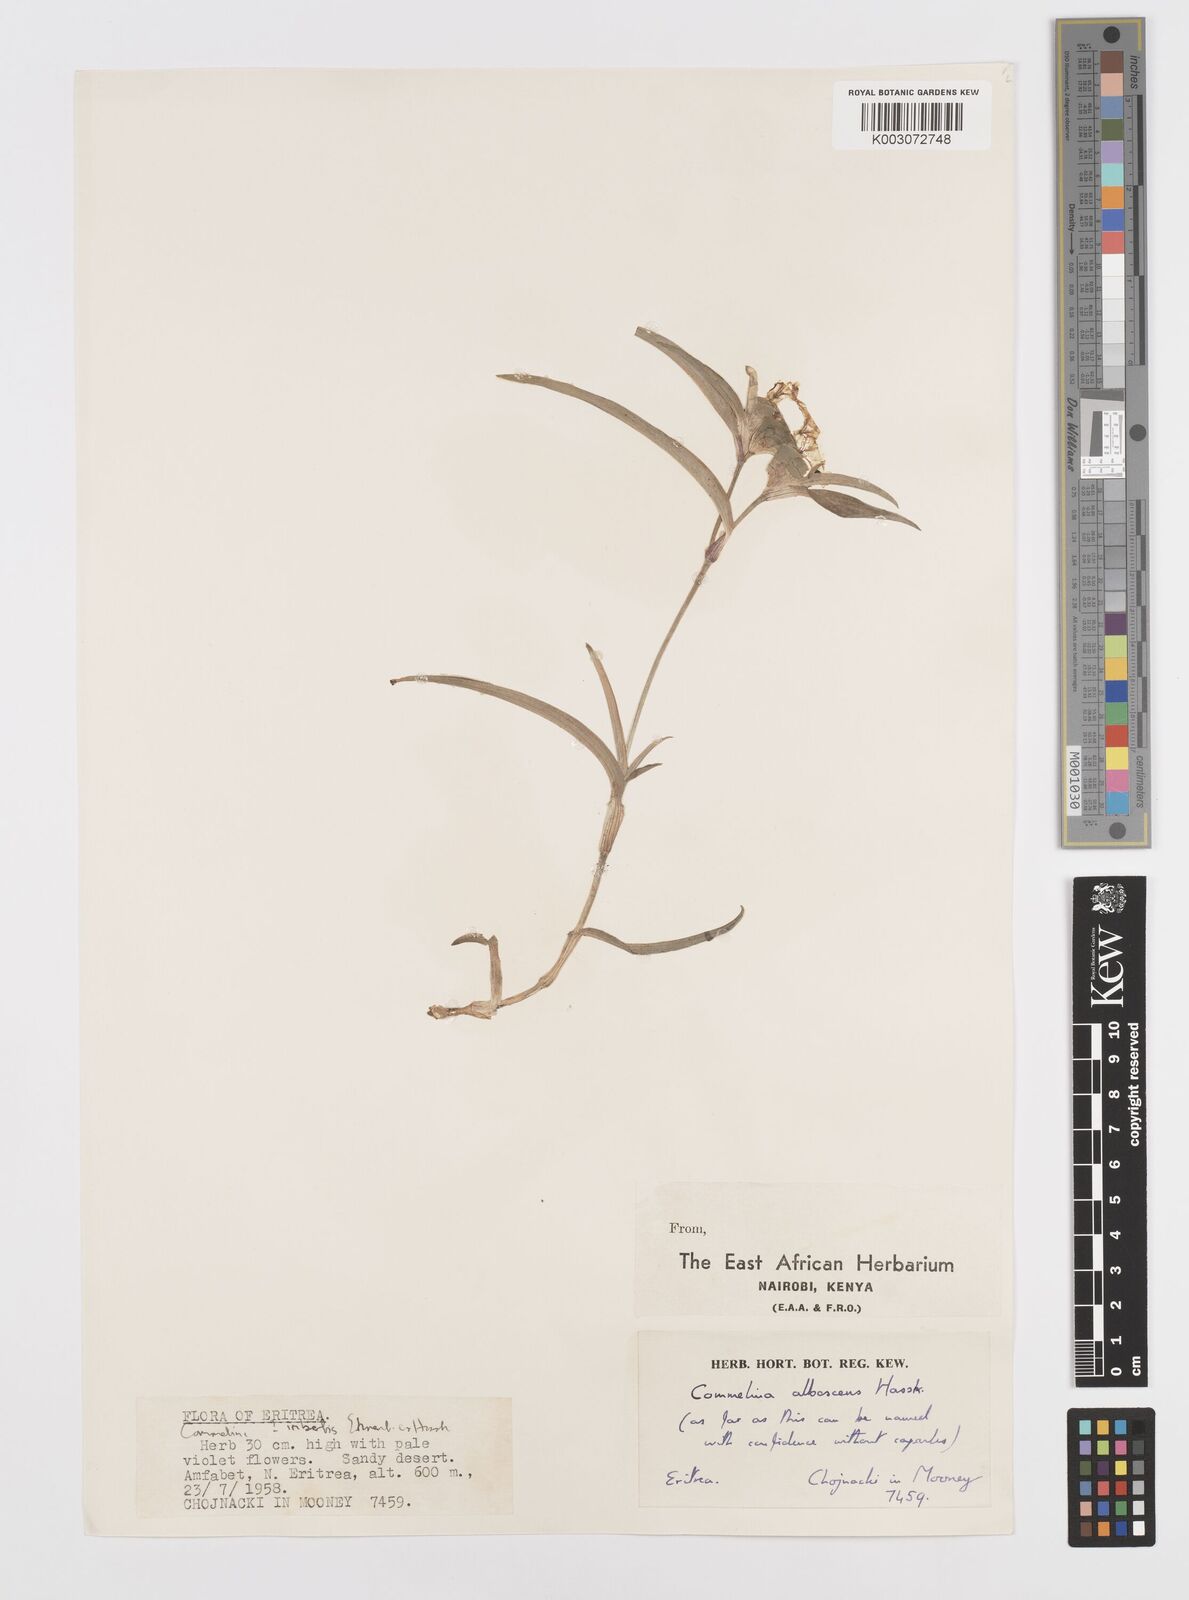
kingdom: Plantae
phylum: Tracheophyta
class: Liliopsida
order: Commelinales
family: Commelinaceae
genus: Commelina
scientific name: Commelina albescens
